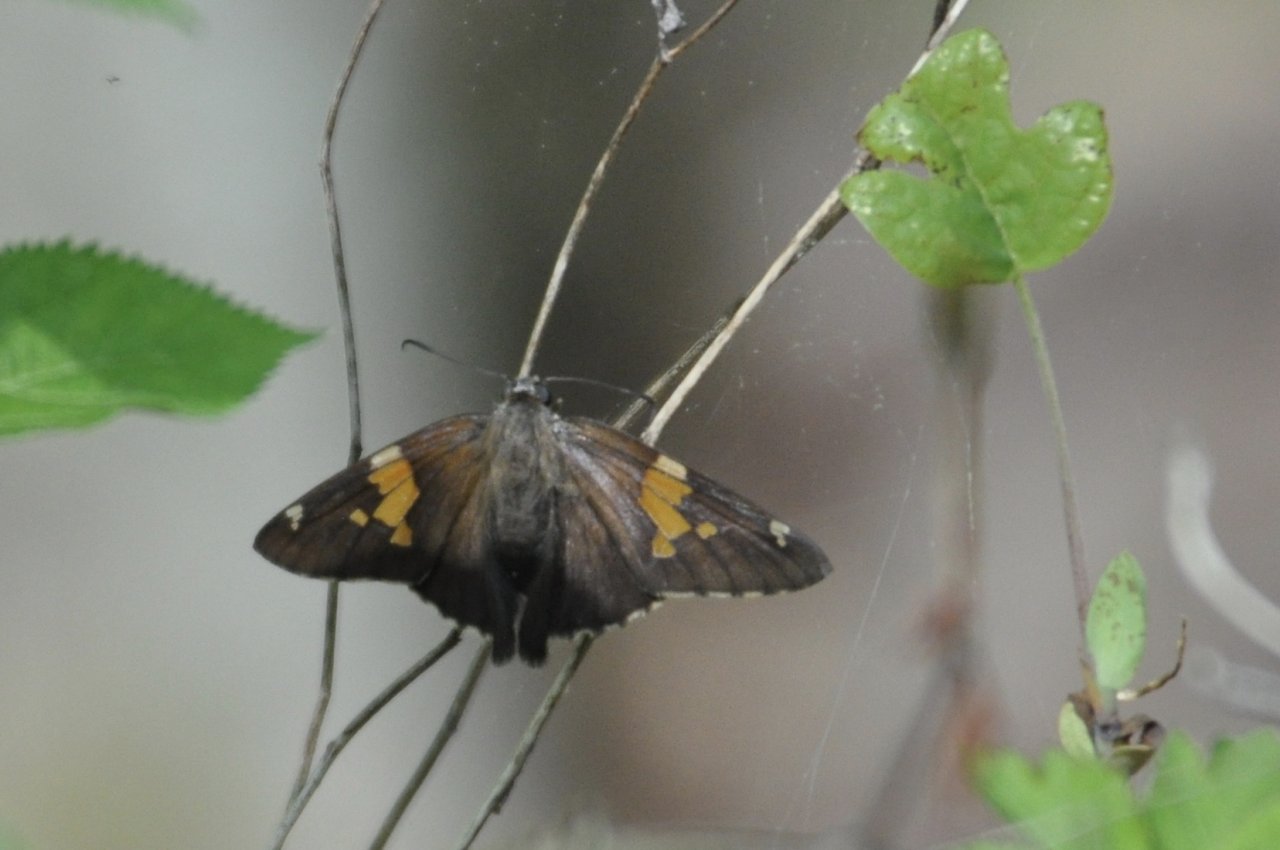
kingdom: Animalia
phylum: Arthropoda
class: Insecta
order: Lepidoptera
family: Hesperiidae
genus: Epargyreus
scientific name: Epargyreus clarus
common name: Silver-spotted Skipper
